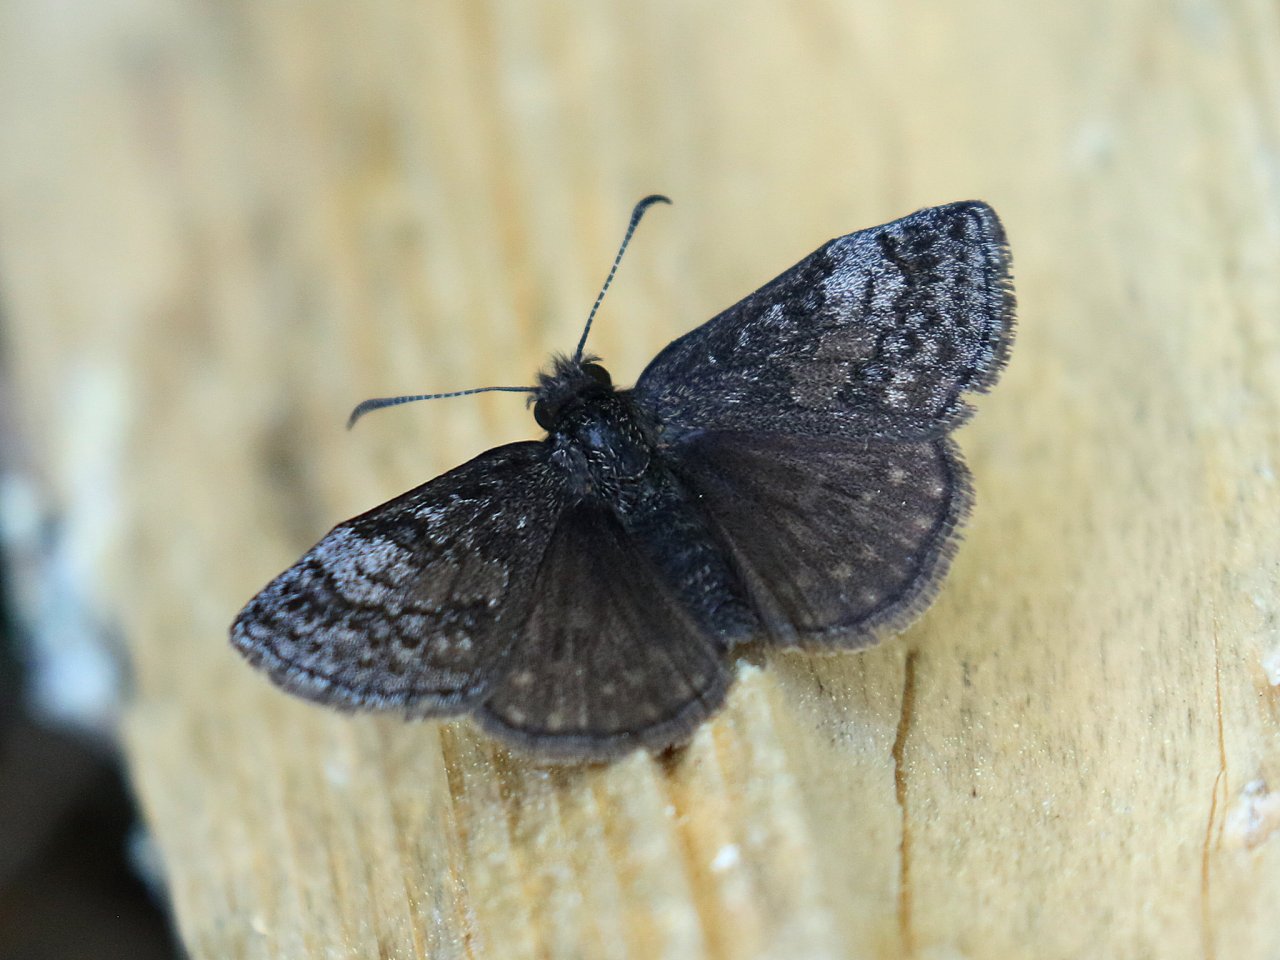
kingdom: Animalia
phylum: Arthropoda
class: Insecta
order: Lepidoptera
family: Hesperiidae
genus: Erynnis
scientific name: Erynnis icelus
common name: Dreamy Duskywing
